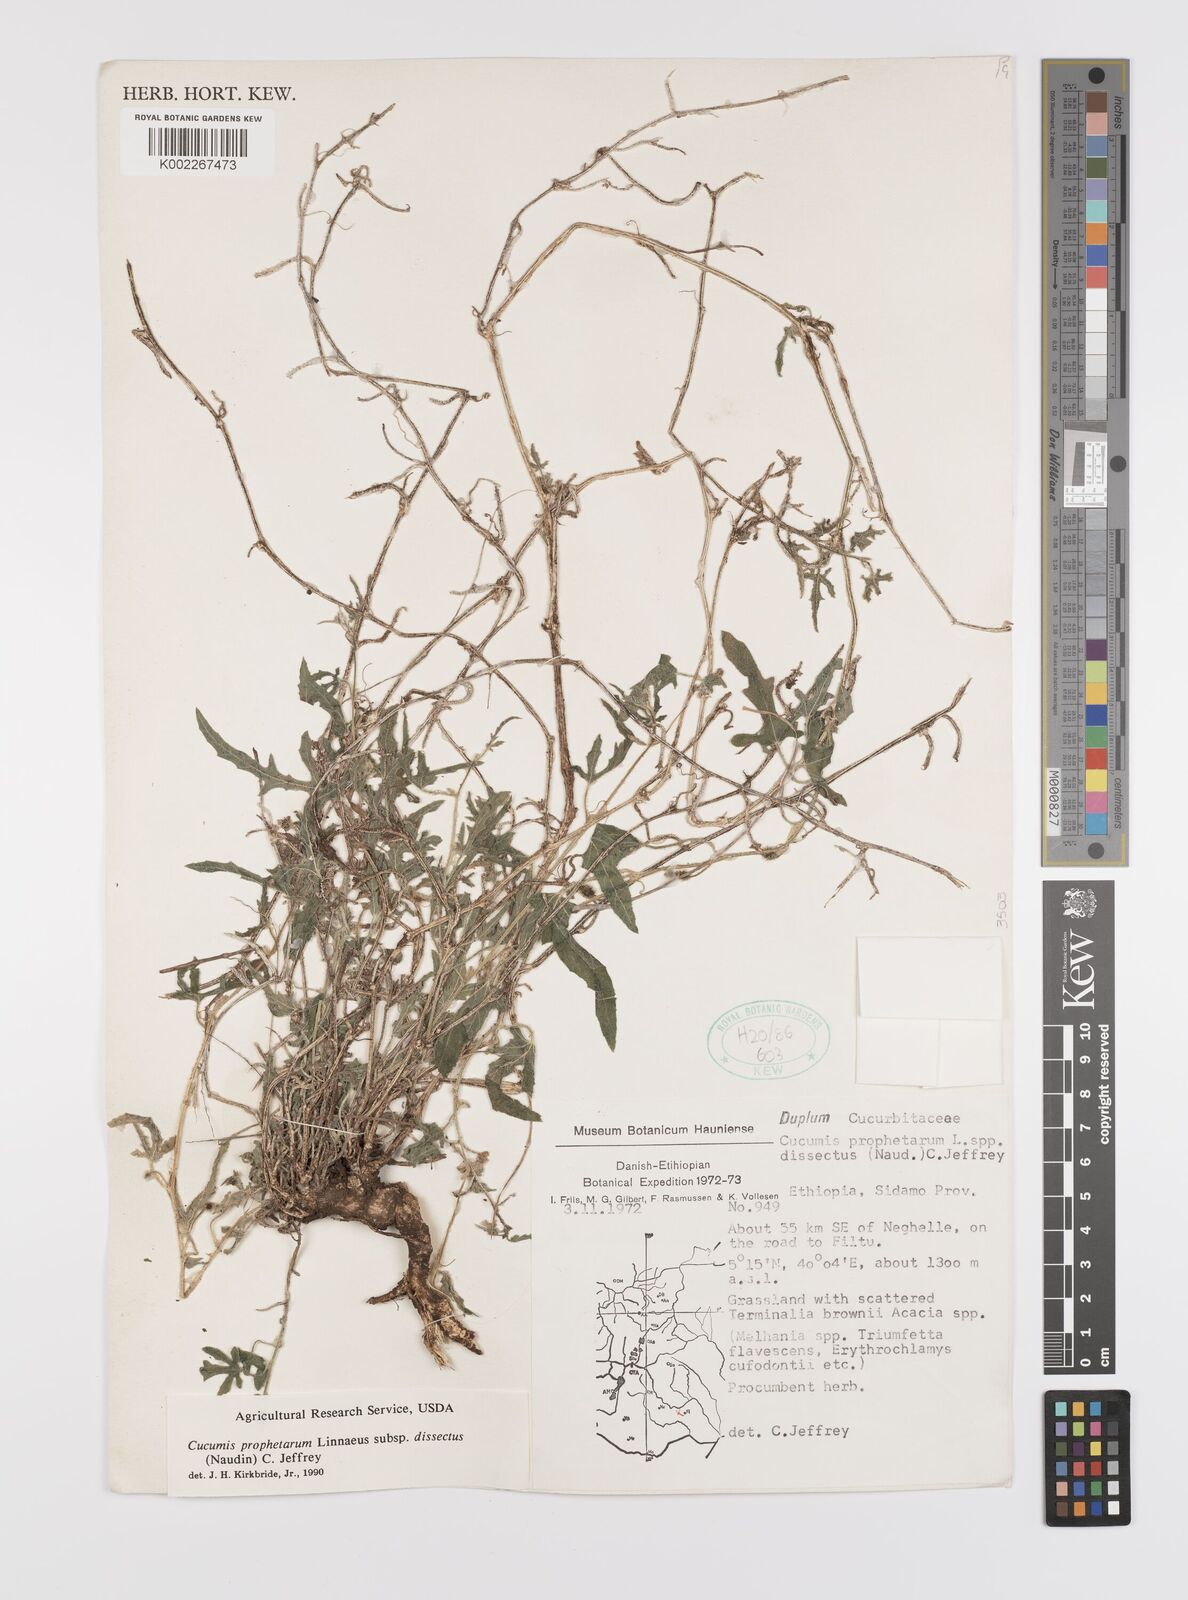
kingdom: Plantae
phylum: Tracheophyta
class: Magnoliopsida
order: Cucurbitales
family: Cucurbitaceae
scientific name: Cucurbitaceae
